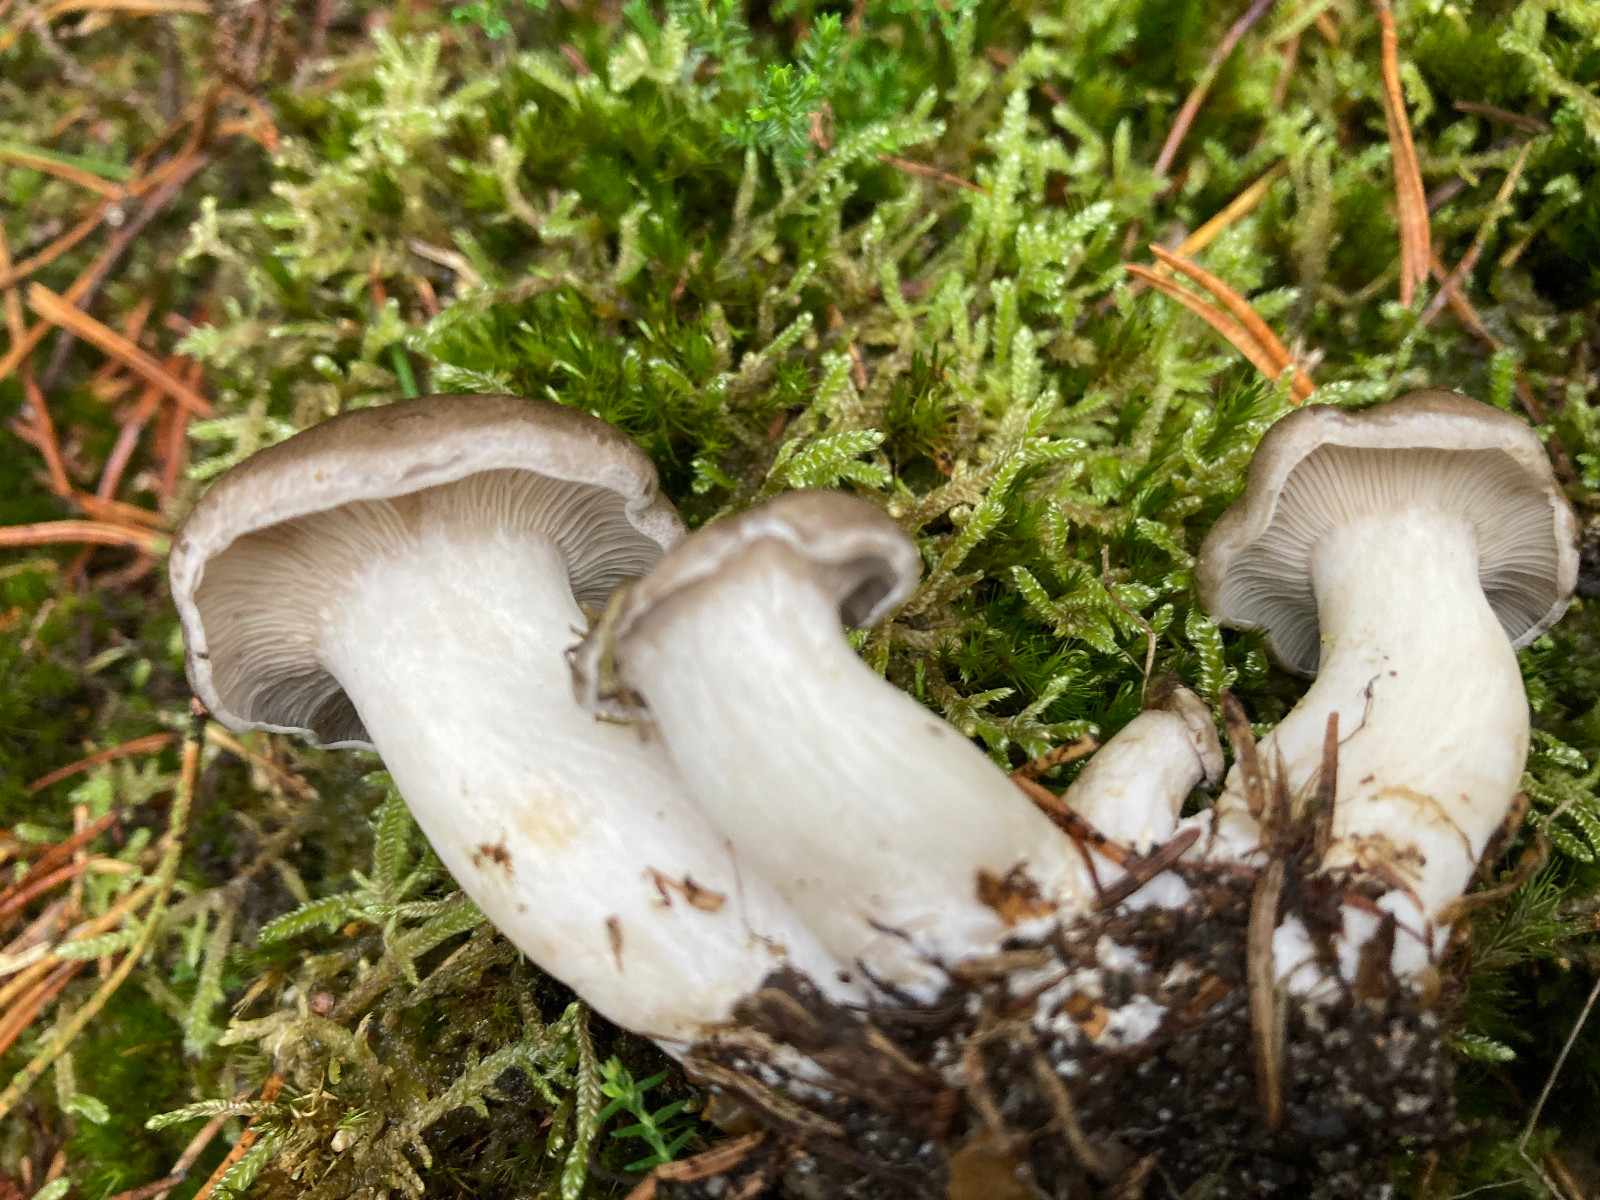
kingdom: Fungi
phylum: Basidiomycota
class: Agaricomycetes
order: Agaricales
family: Entolomataceae
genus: Rhodocybe
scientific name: Rhodocybe
